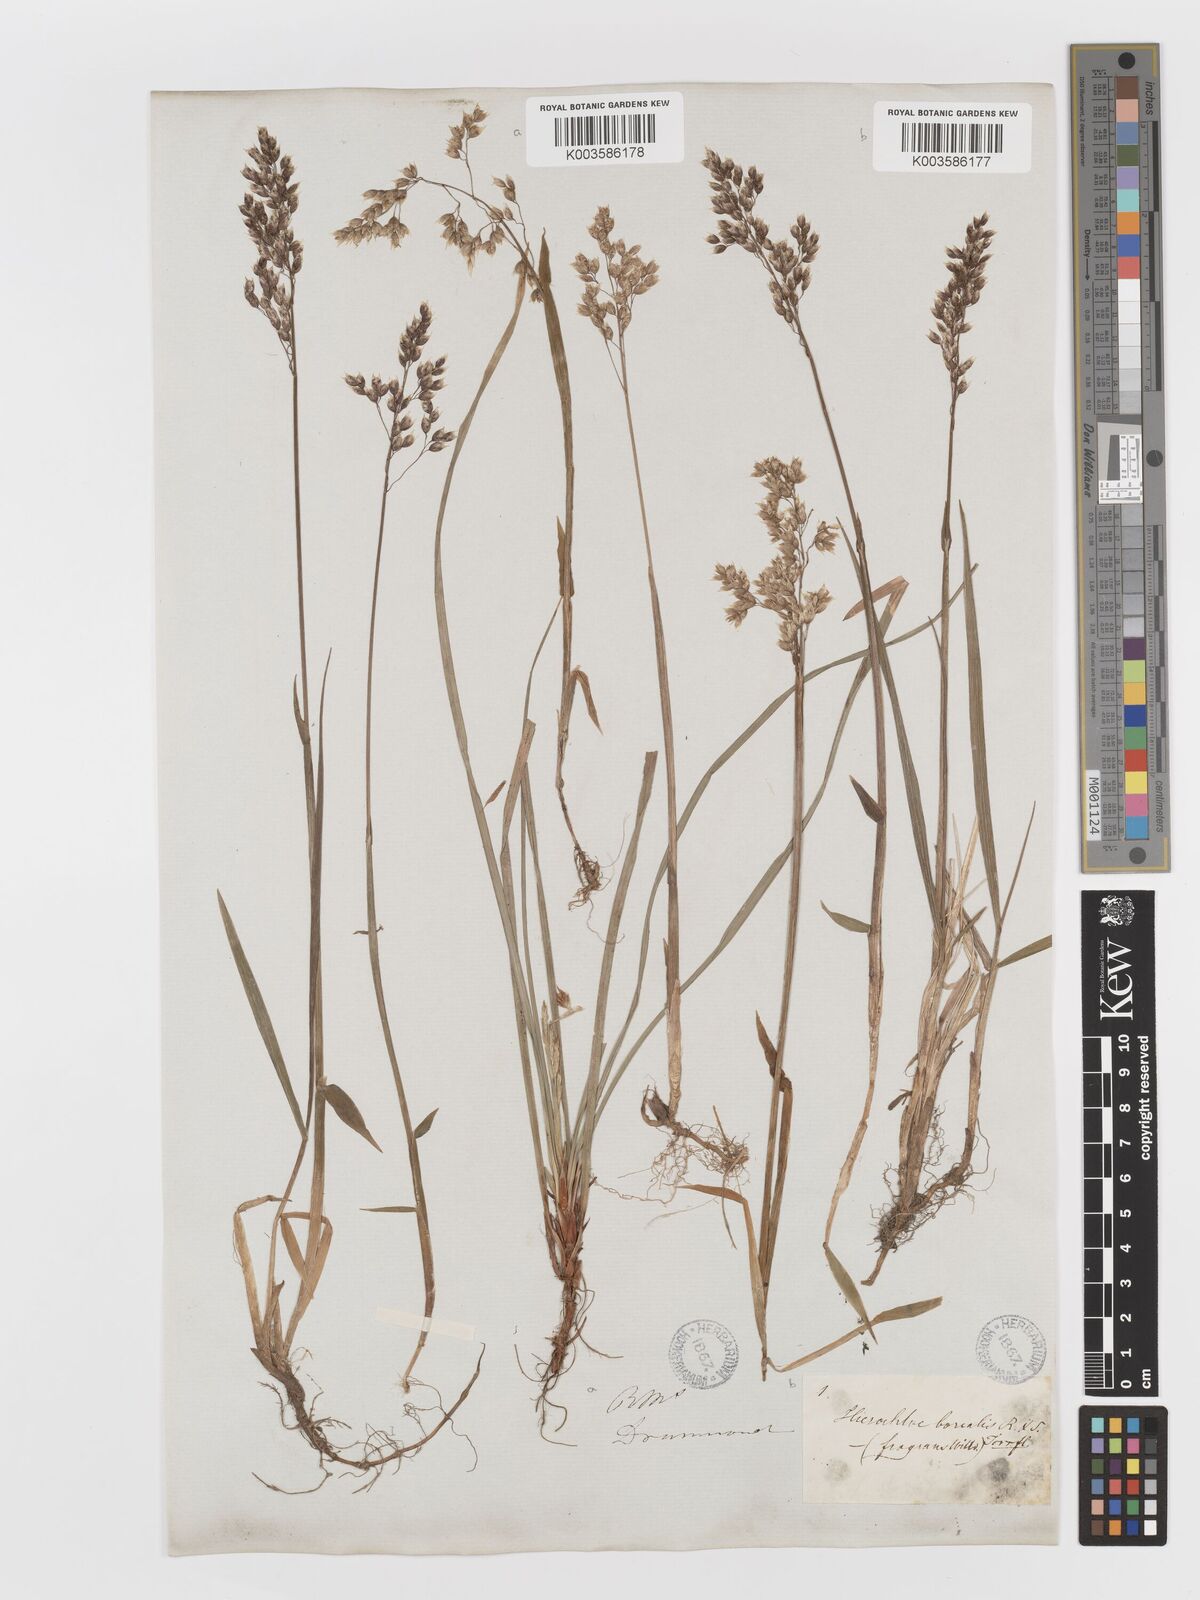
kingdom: Plantae
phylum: Tracheophyta
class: Liliopsida
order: Poales
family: Poaceae
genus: Anthoxanthum
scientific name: Anthoxanthum nitens
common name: Holy grass
